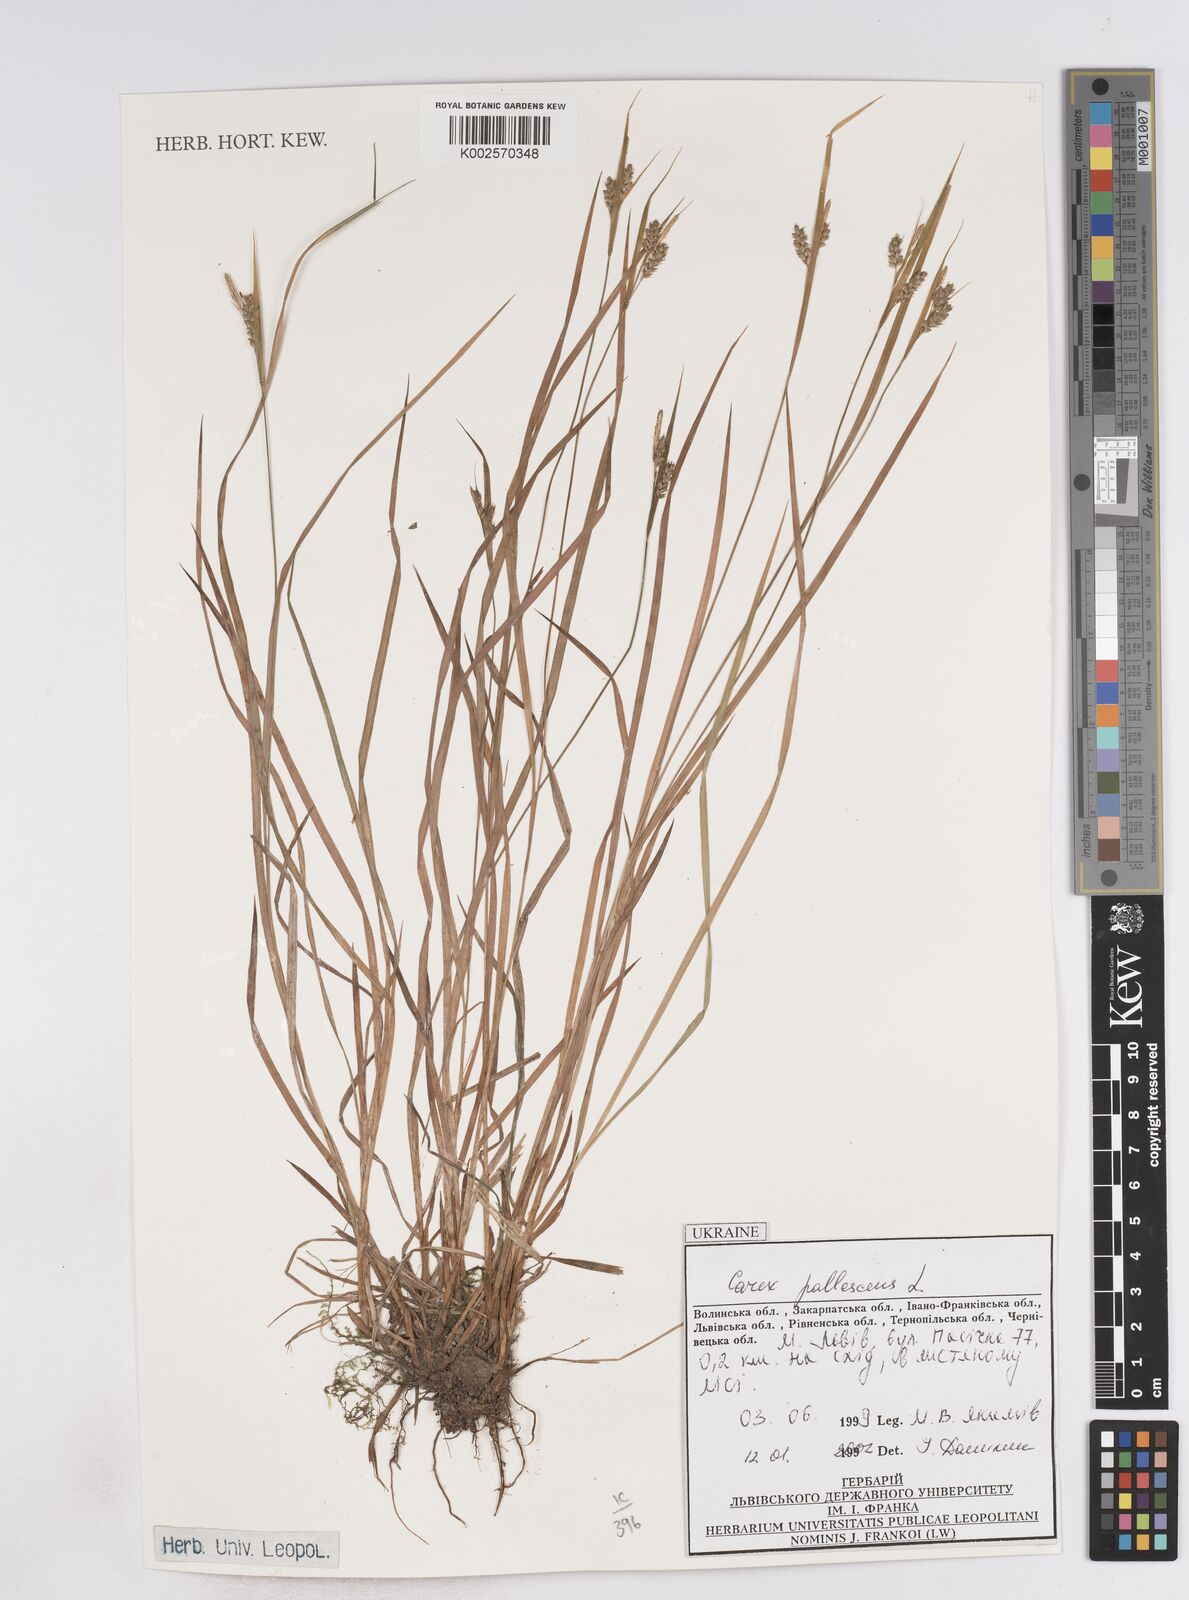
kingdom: Plantae
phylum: Tracheophyta
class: Liliopsida
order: Poales
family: Cyperaceae
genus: Carex
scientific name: Carex pallescens
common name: Pale sedge
